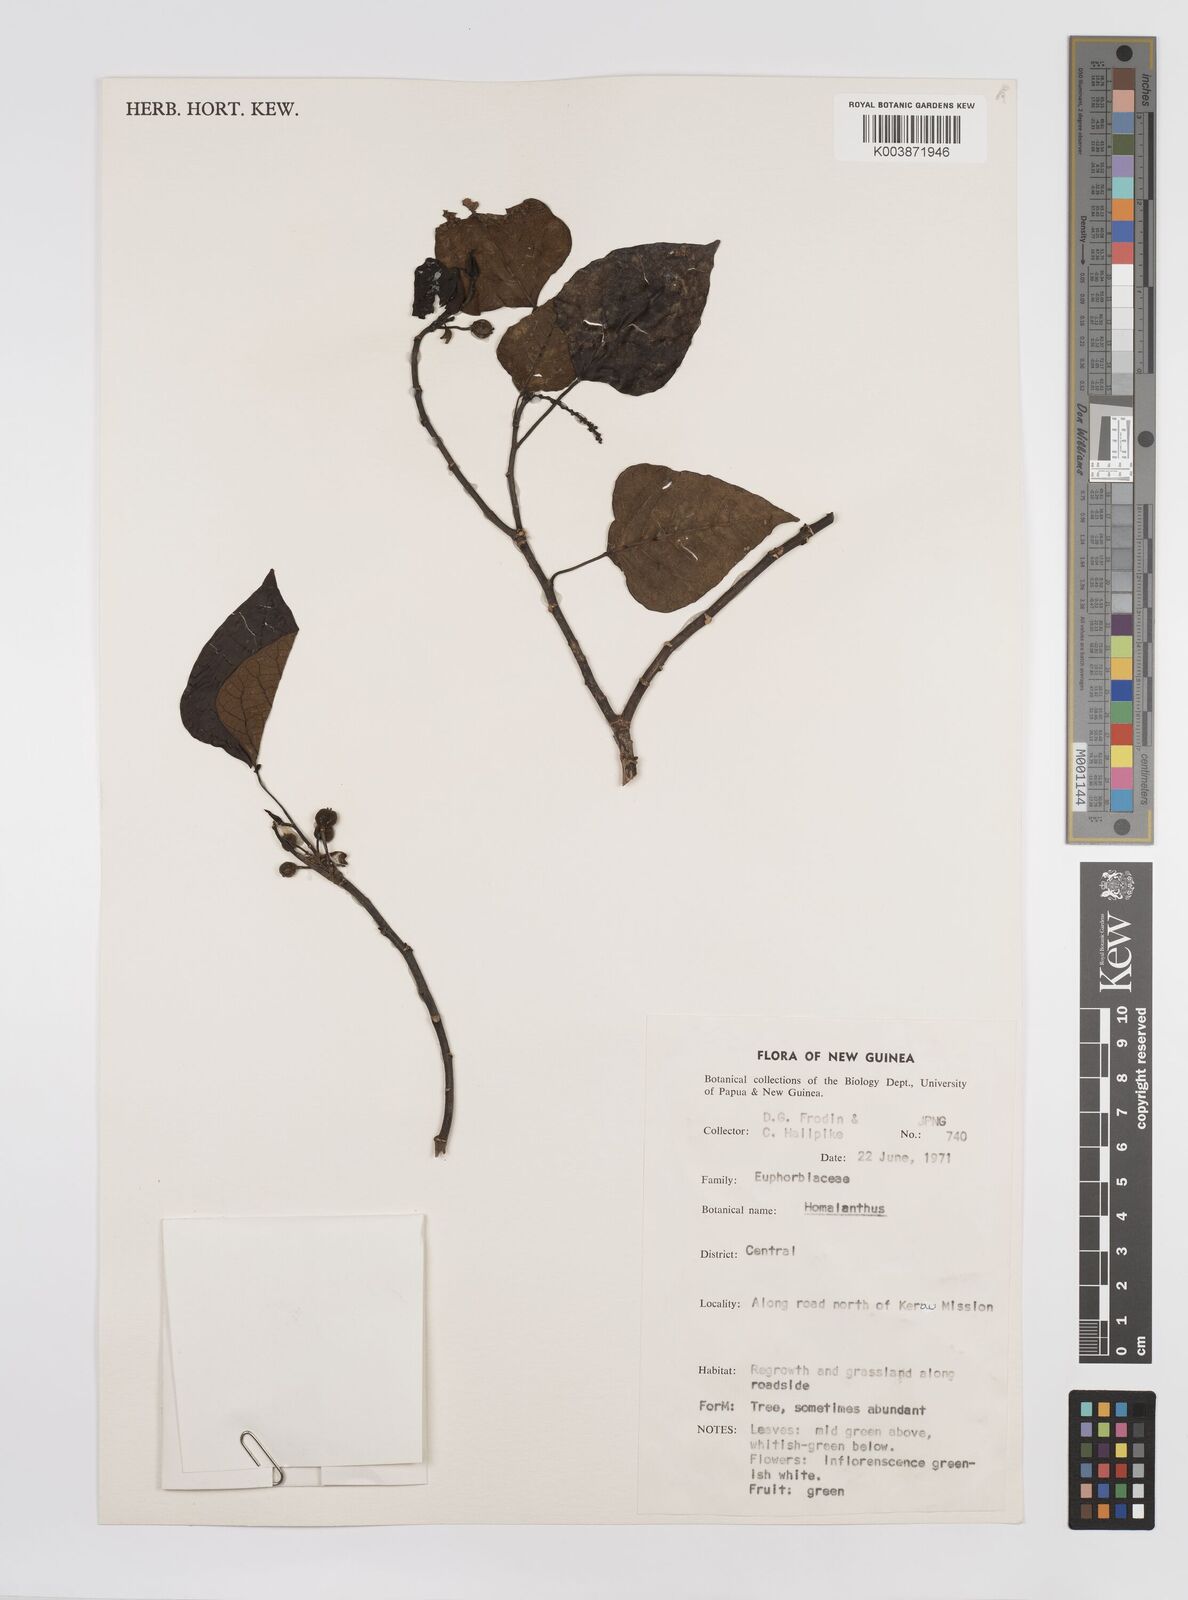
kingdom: Plantae
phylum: Tracheophyta
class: Magnoliopsida
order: Malpighiales
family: Euphorbiaceae
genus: Homalanthus
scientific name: Homalanthus novoguineensis
